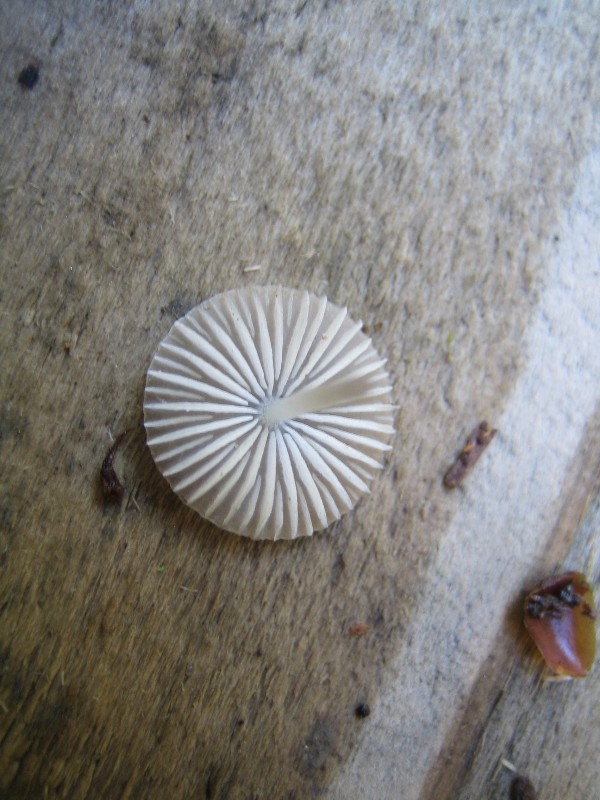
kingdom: Fungi
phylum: Basidiomycota
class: Agaricomycetes
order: Agaricales
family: Mycenaceae
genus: Mycena
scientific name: Mycena vitilis
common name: blankstokket huesvamp
